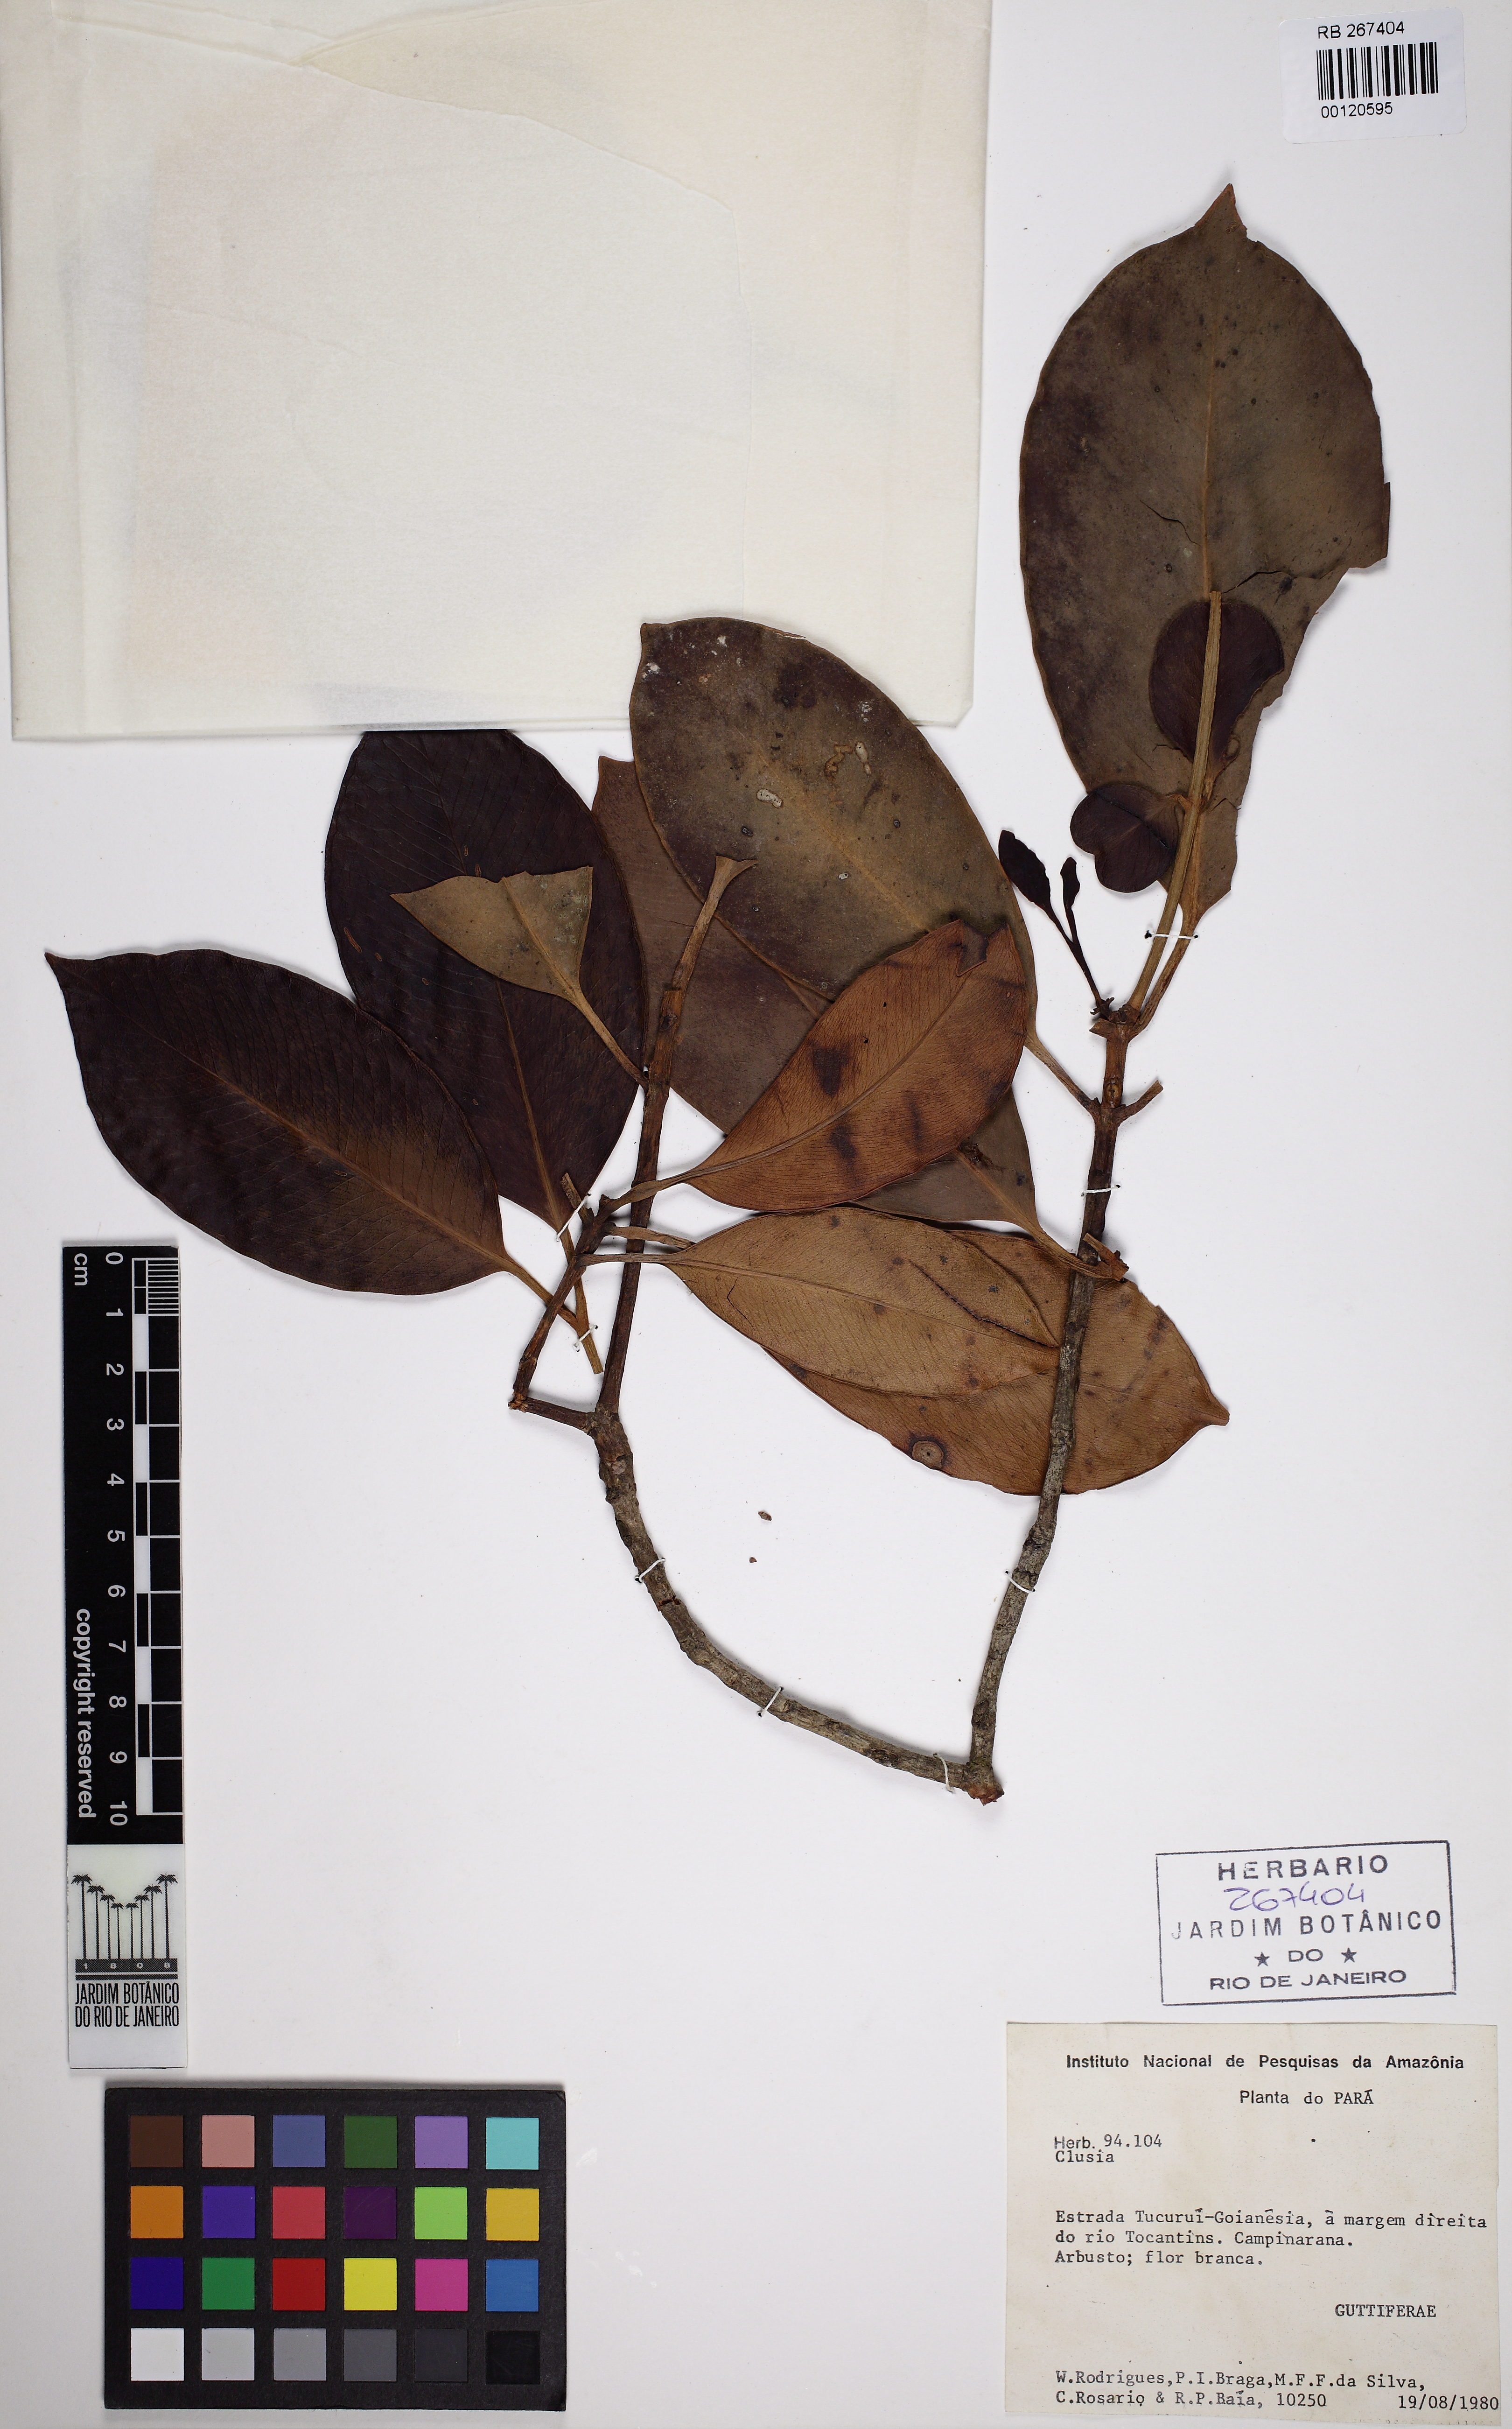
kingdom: Plantae
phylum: Tracheophyta
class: Magnoliopsida
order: Malpighiales
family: Clusiaceae
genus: Clusia
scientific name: Clusia
